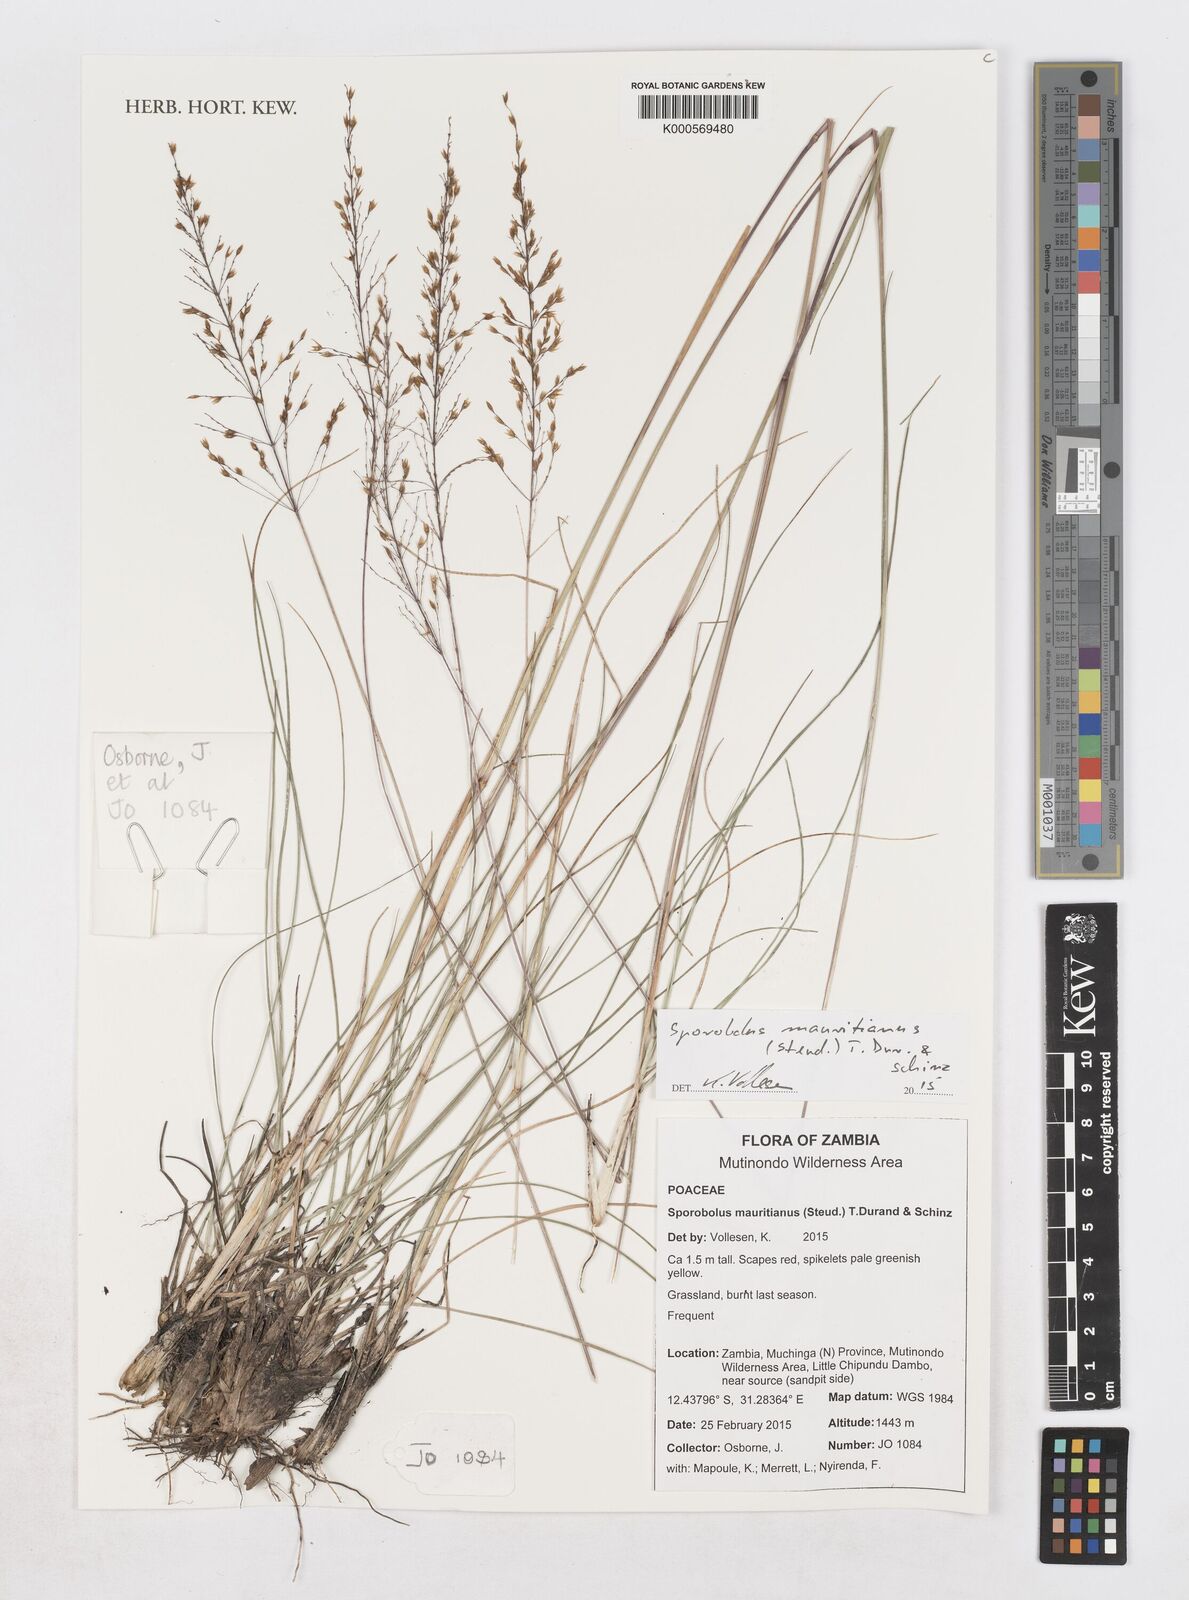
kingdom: Plantae
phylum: Tracheophyta
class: Liliopsida
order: Poales
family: Poaceae
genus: Sporobolus
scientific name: Sporobolus subulatus
